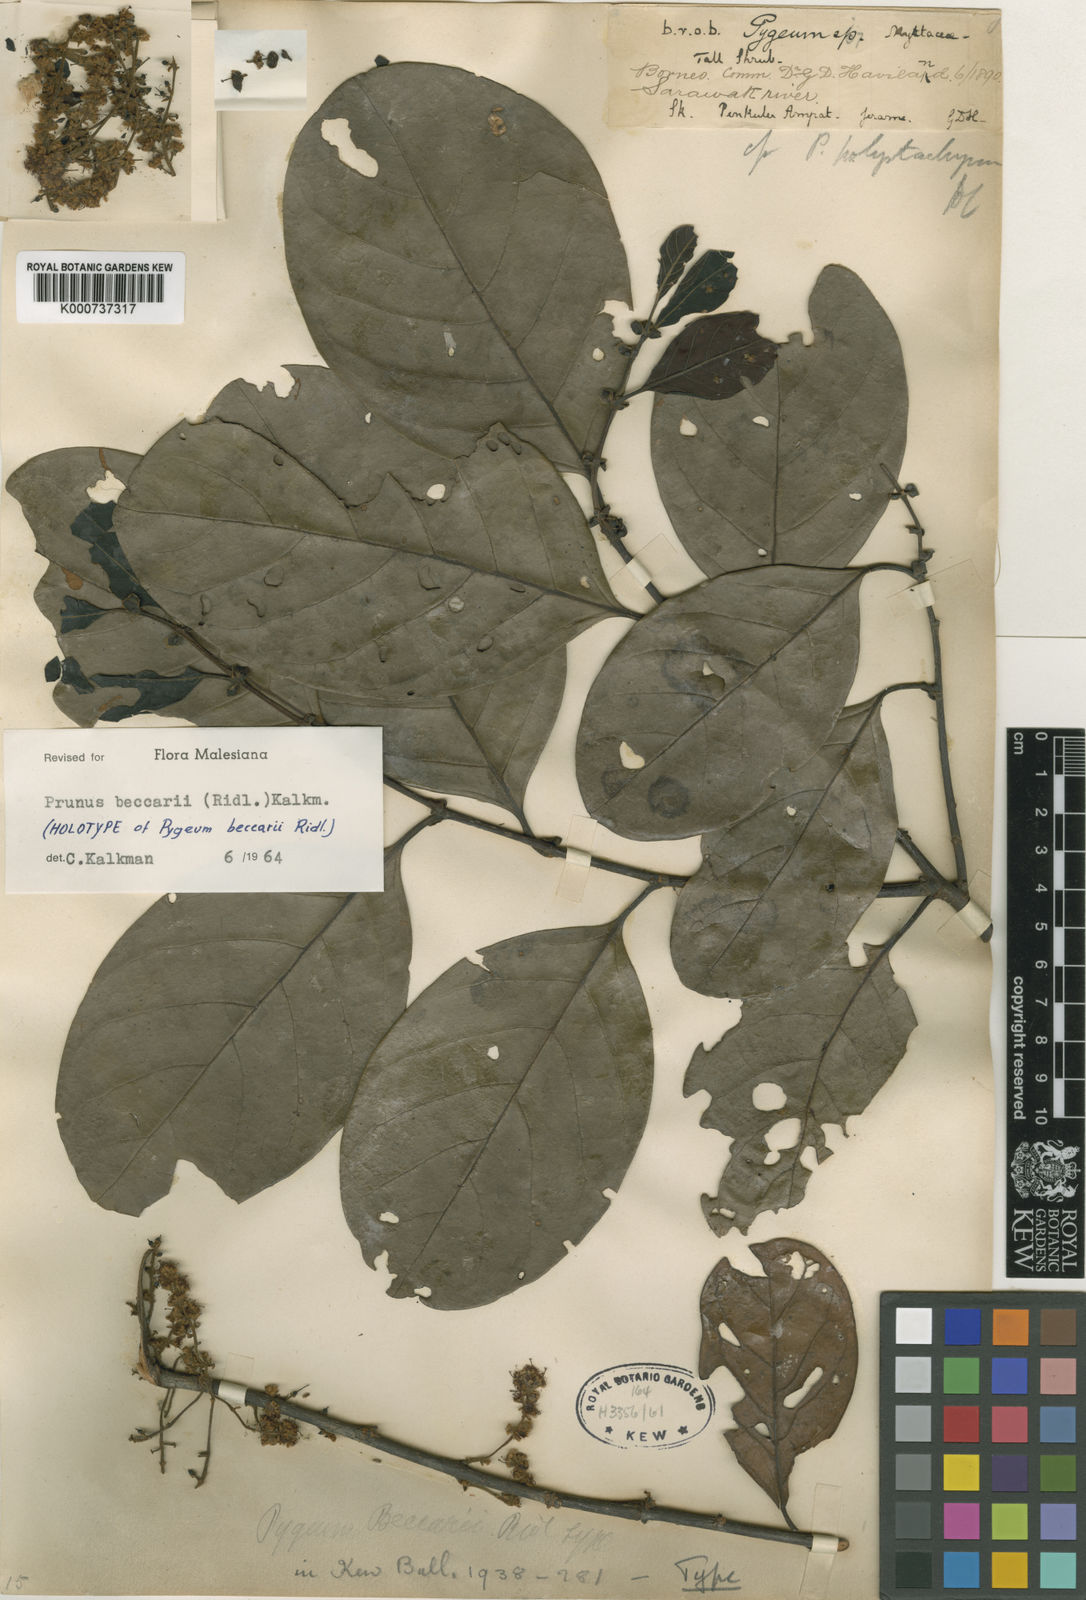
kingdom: Plantae
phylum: Tracheophyta
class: Magnoliopsida
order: Rosales
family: Rosaceae
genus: Prunus
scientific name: Prunus
